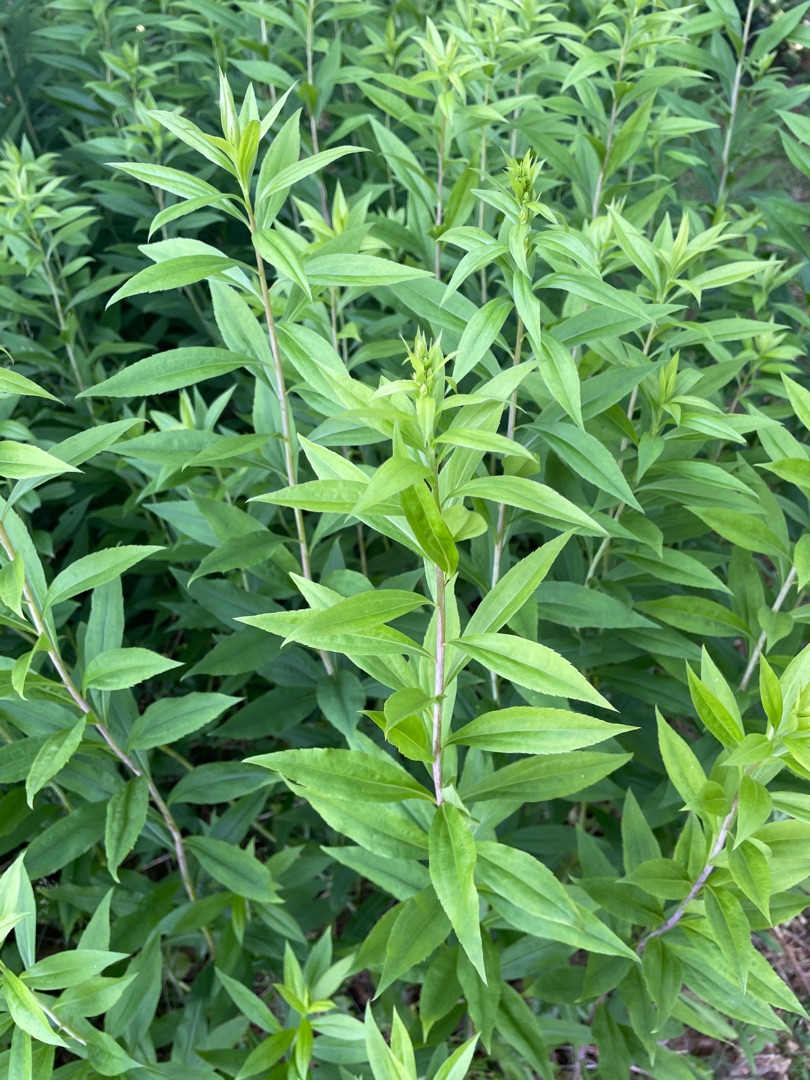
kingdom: Plantae
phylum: Tracheophyta
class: Magnoliopsida
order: Asterales
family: Asteraceae
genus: Solidago
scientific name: Solidago gigantea
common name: Sildig gyldenris
